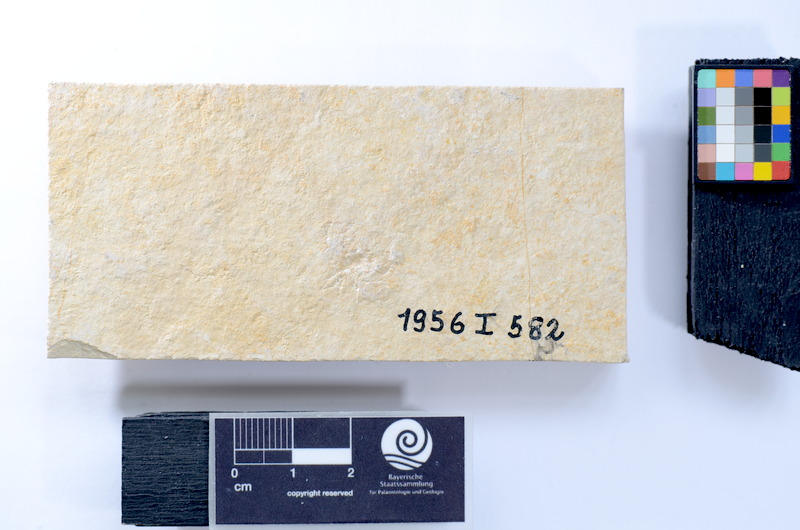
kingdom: Animalia
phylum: Chordata
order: Salmoniformes
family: Orthogonikleithridae
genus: Leptolepides
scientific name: Leptolepides sprattiformis
